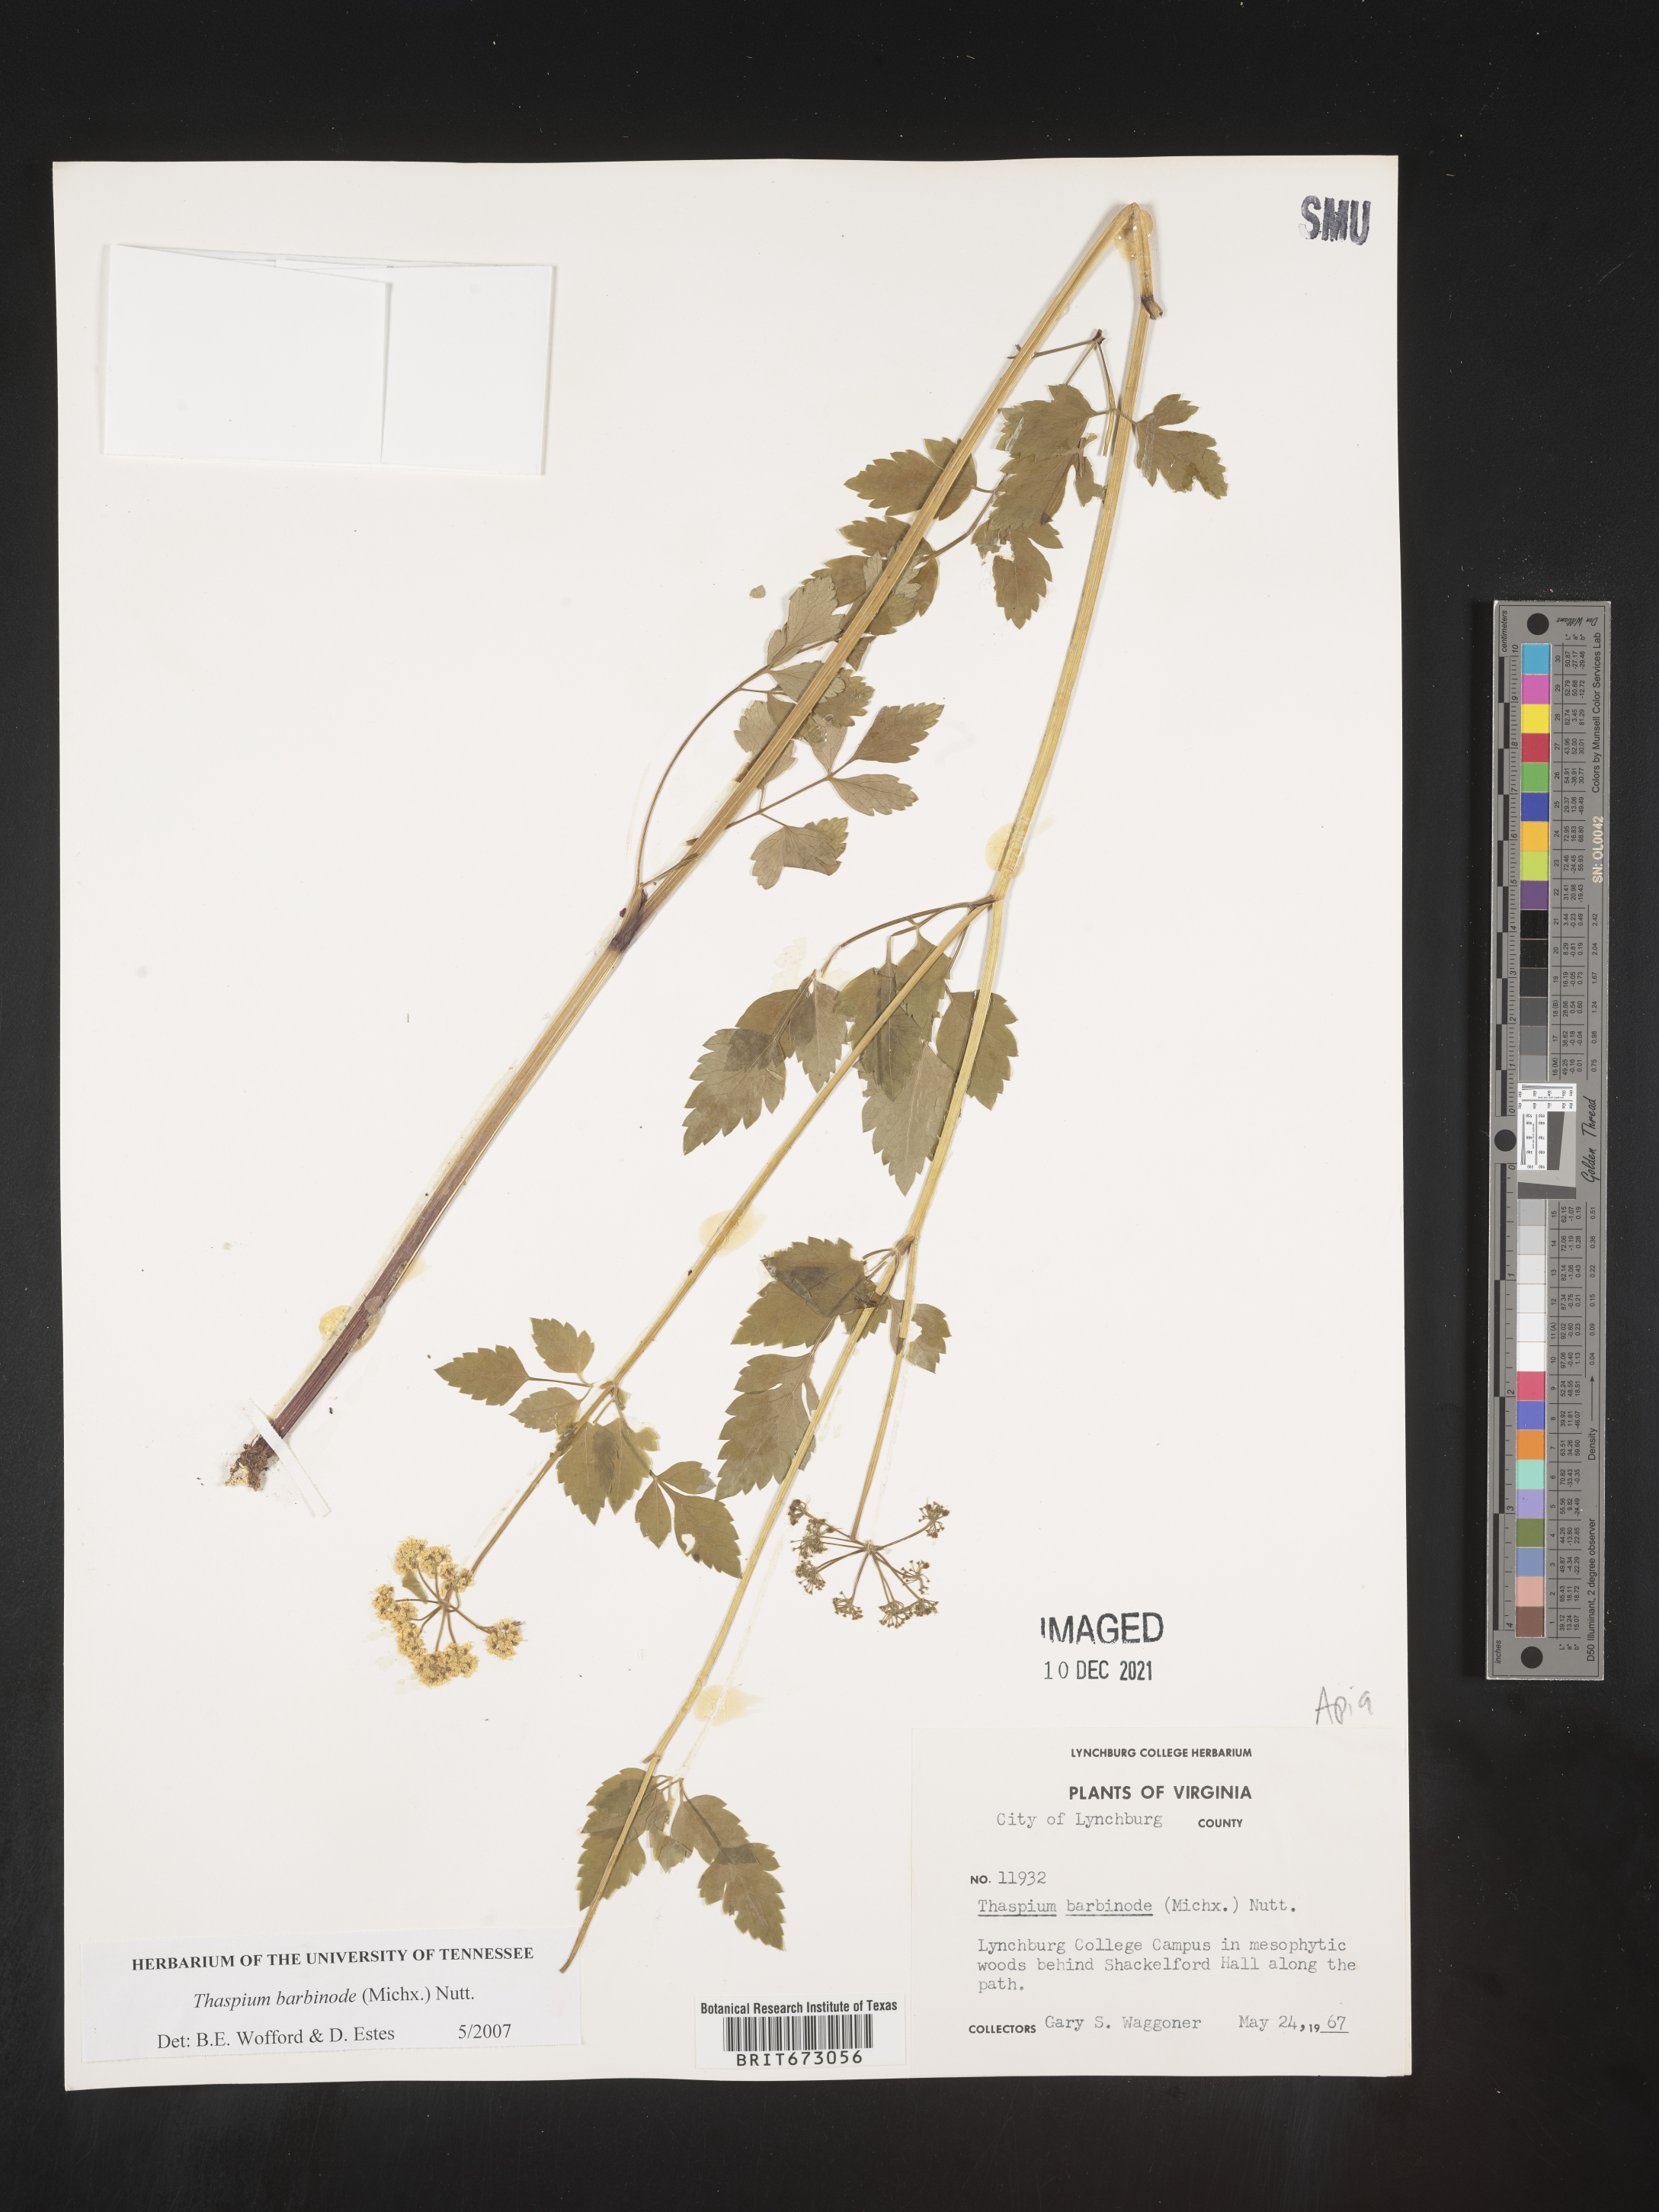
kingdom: Plantae
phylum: Tracheophyta
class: Magnoliopsida
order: Apiales
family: Apiaceae
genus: Thaspium
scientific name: Thaspium barbinode
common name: Bearded meadow-parsnip
